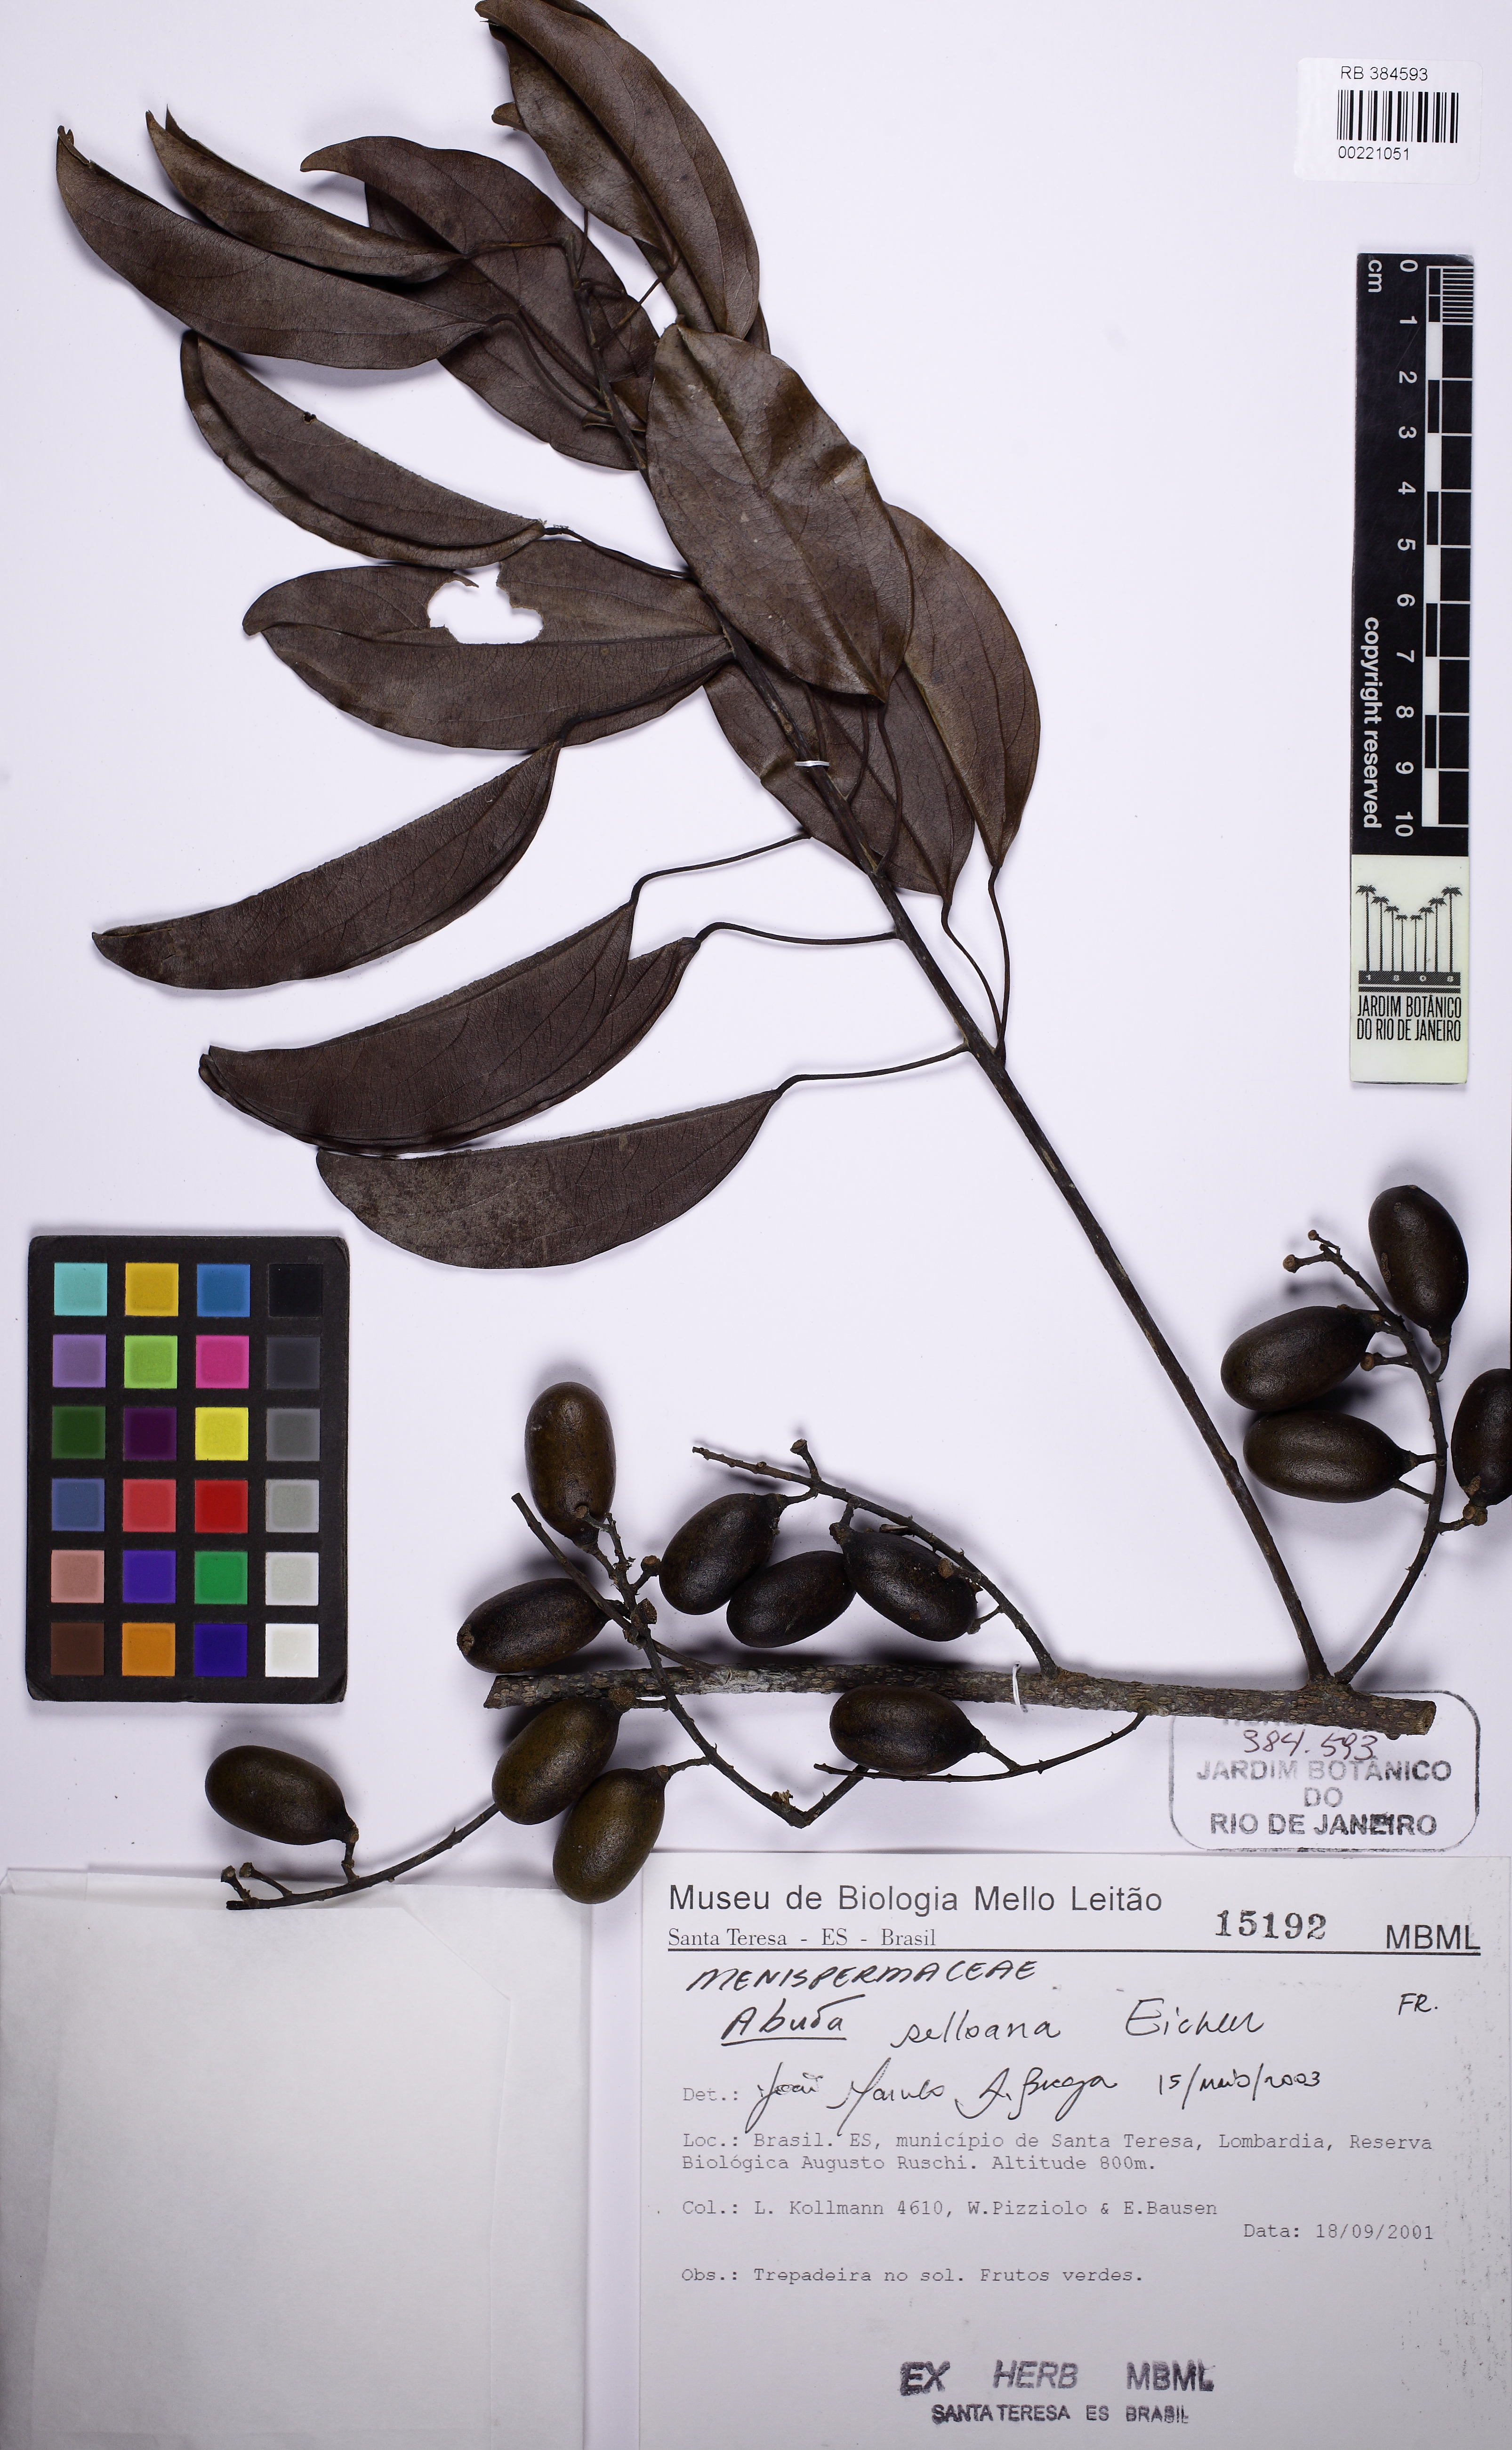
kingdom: Plantae
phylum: Tracheophyta
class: Magnoliopsida
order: Ranunculales
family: Menispermaceae
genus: Abuta
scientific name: Abuta selloana
